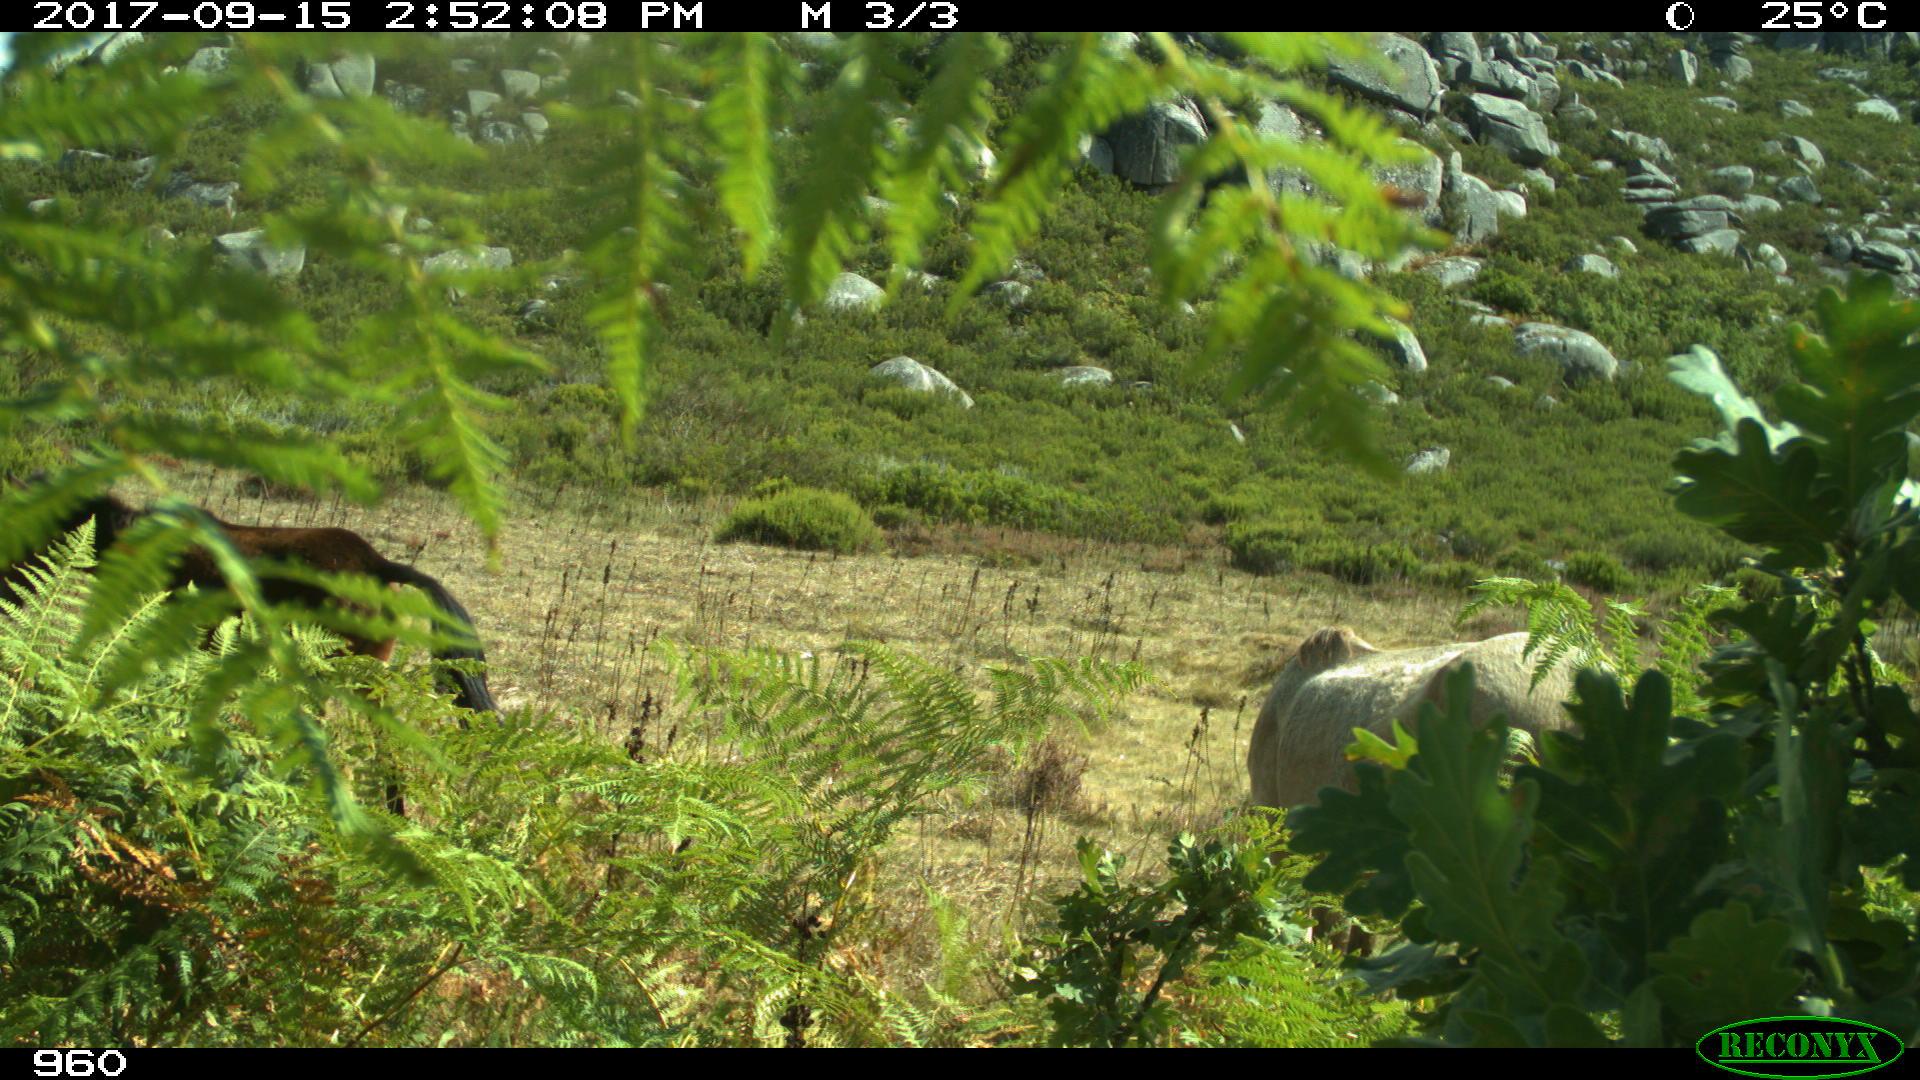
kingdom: Animalia
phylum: Chordata
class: Mammalia
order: Perissodactyla
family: Equidae
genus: Equus
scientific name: Equus caballus
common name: Horse
